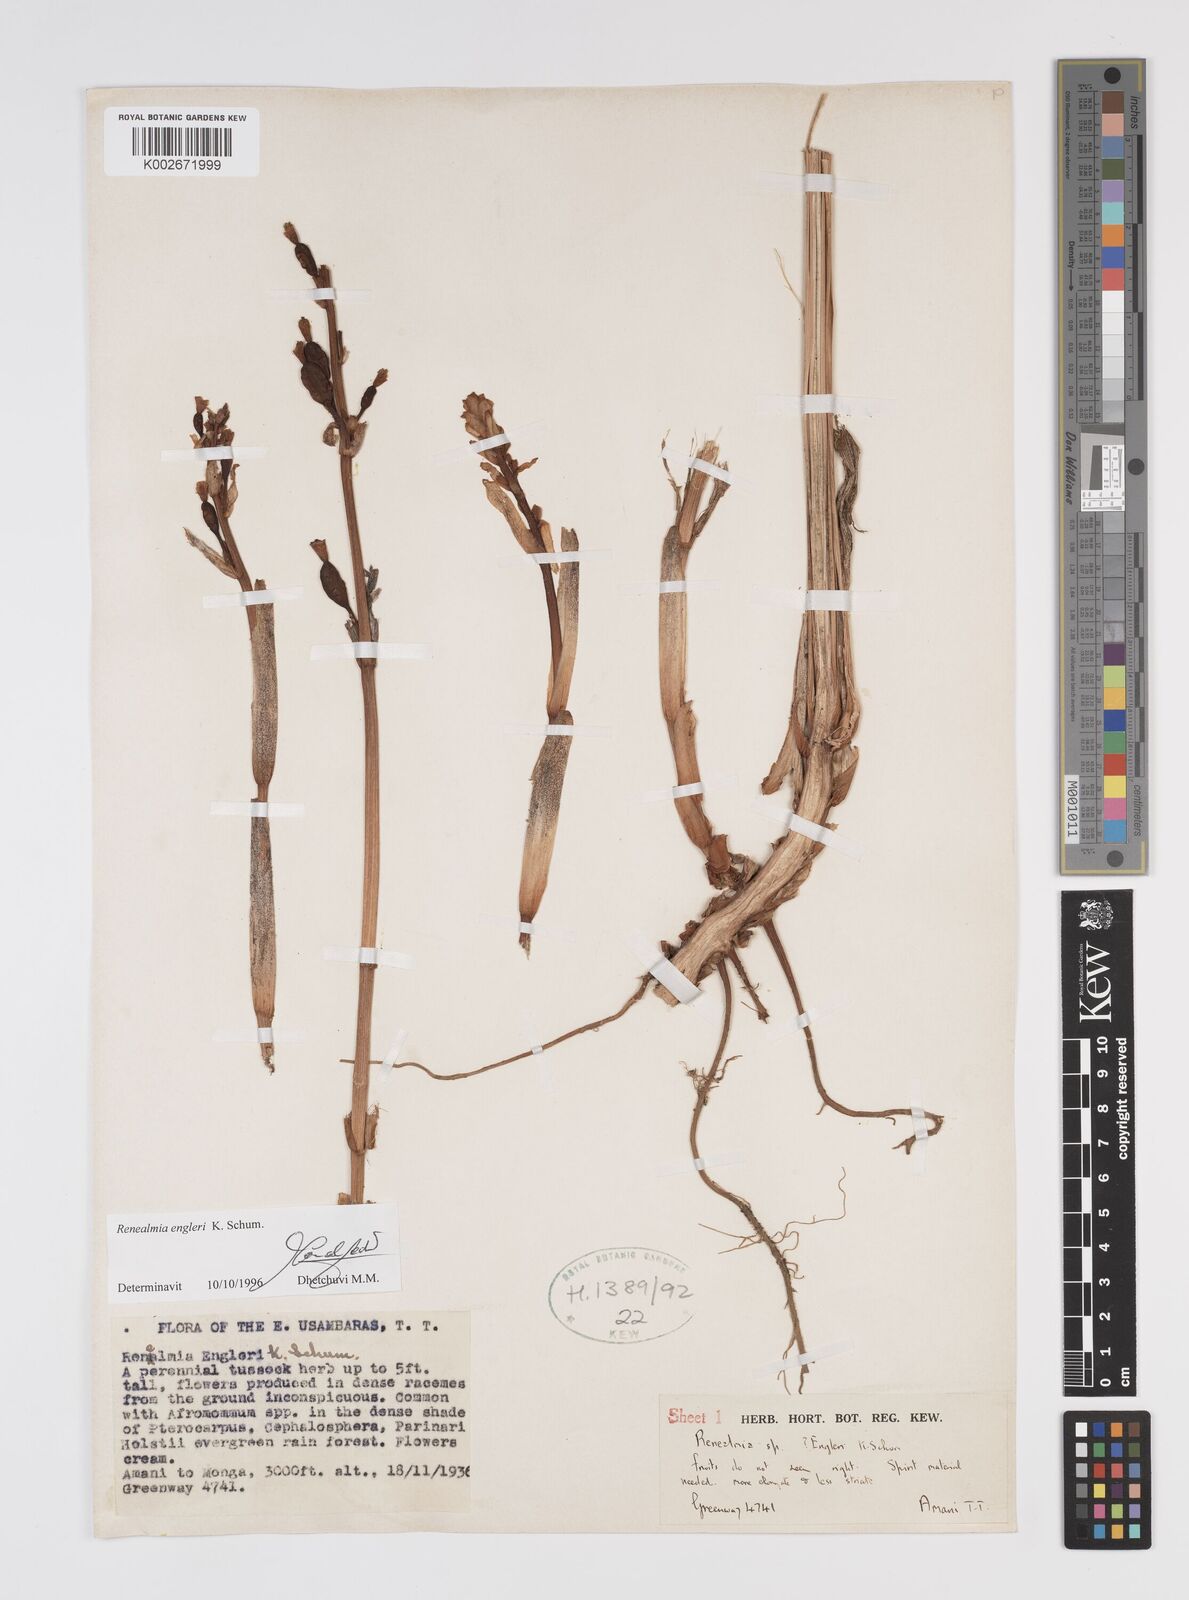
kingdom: Plantae
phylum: Tracheophyta
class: Liliopsida
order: Zingiberales
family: Zingiberaceae
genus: Renealmia
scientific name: Renealmia engleri
